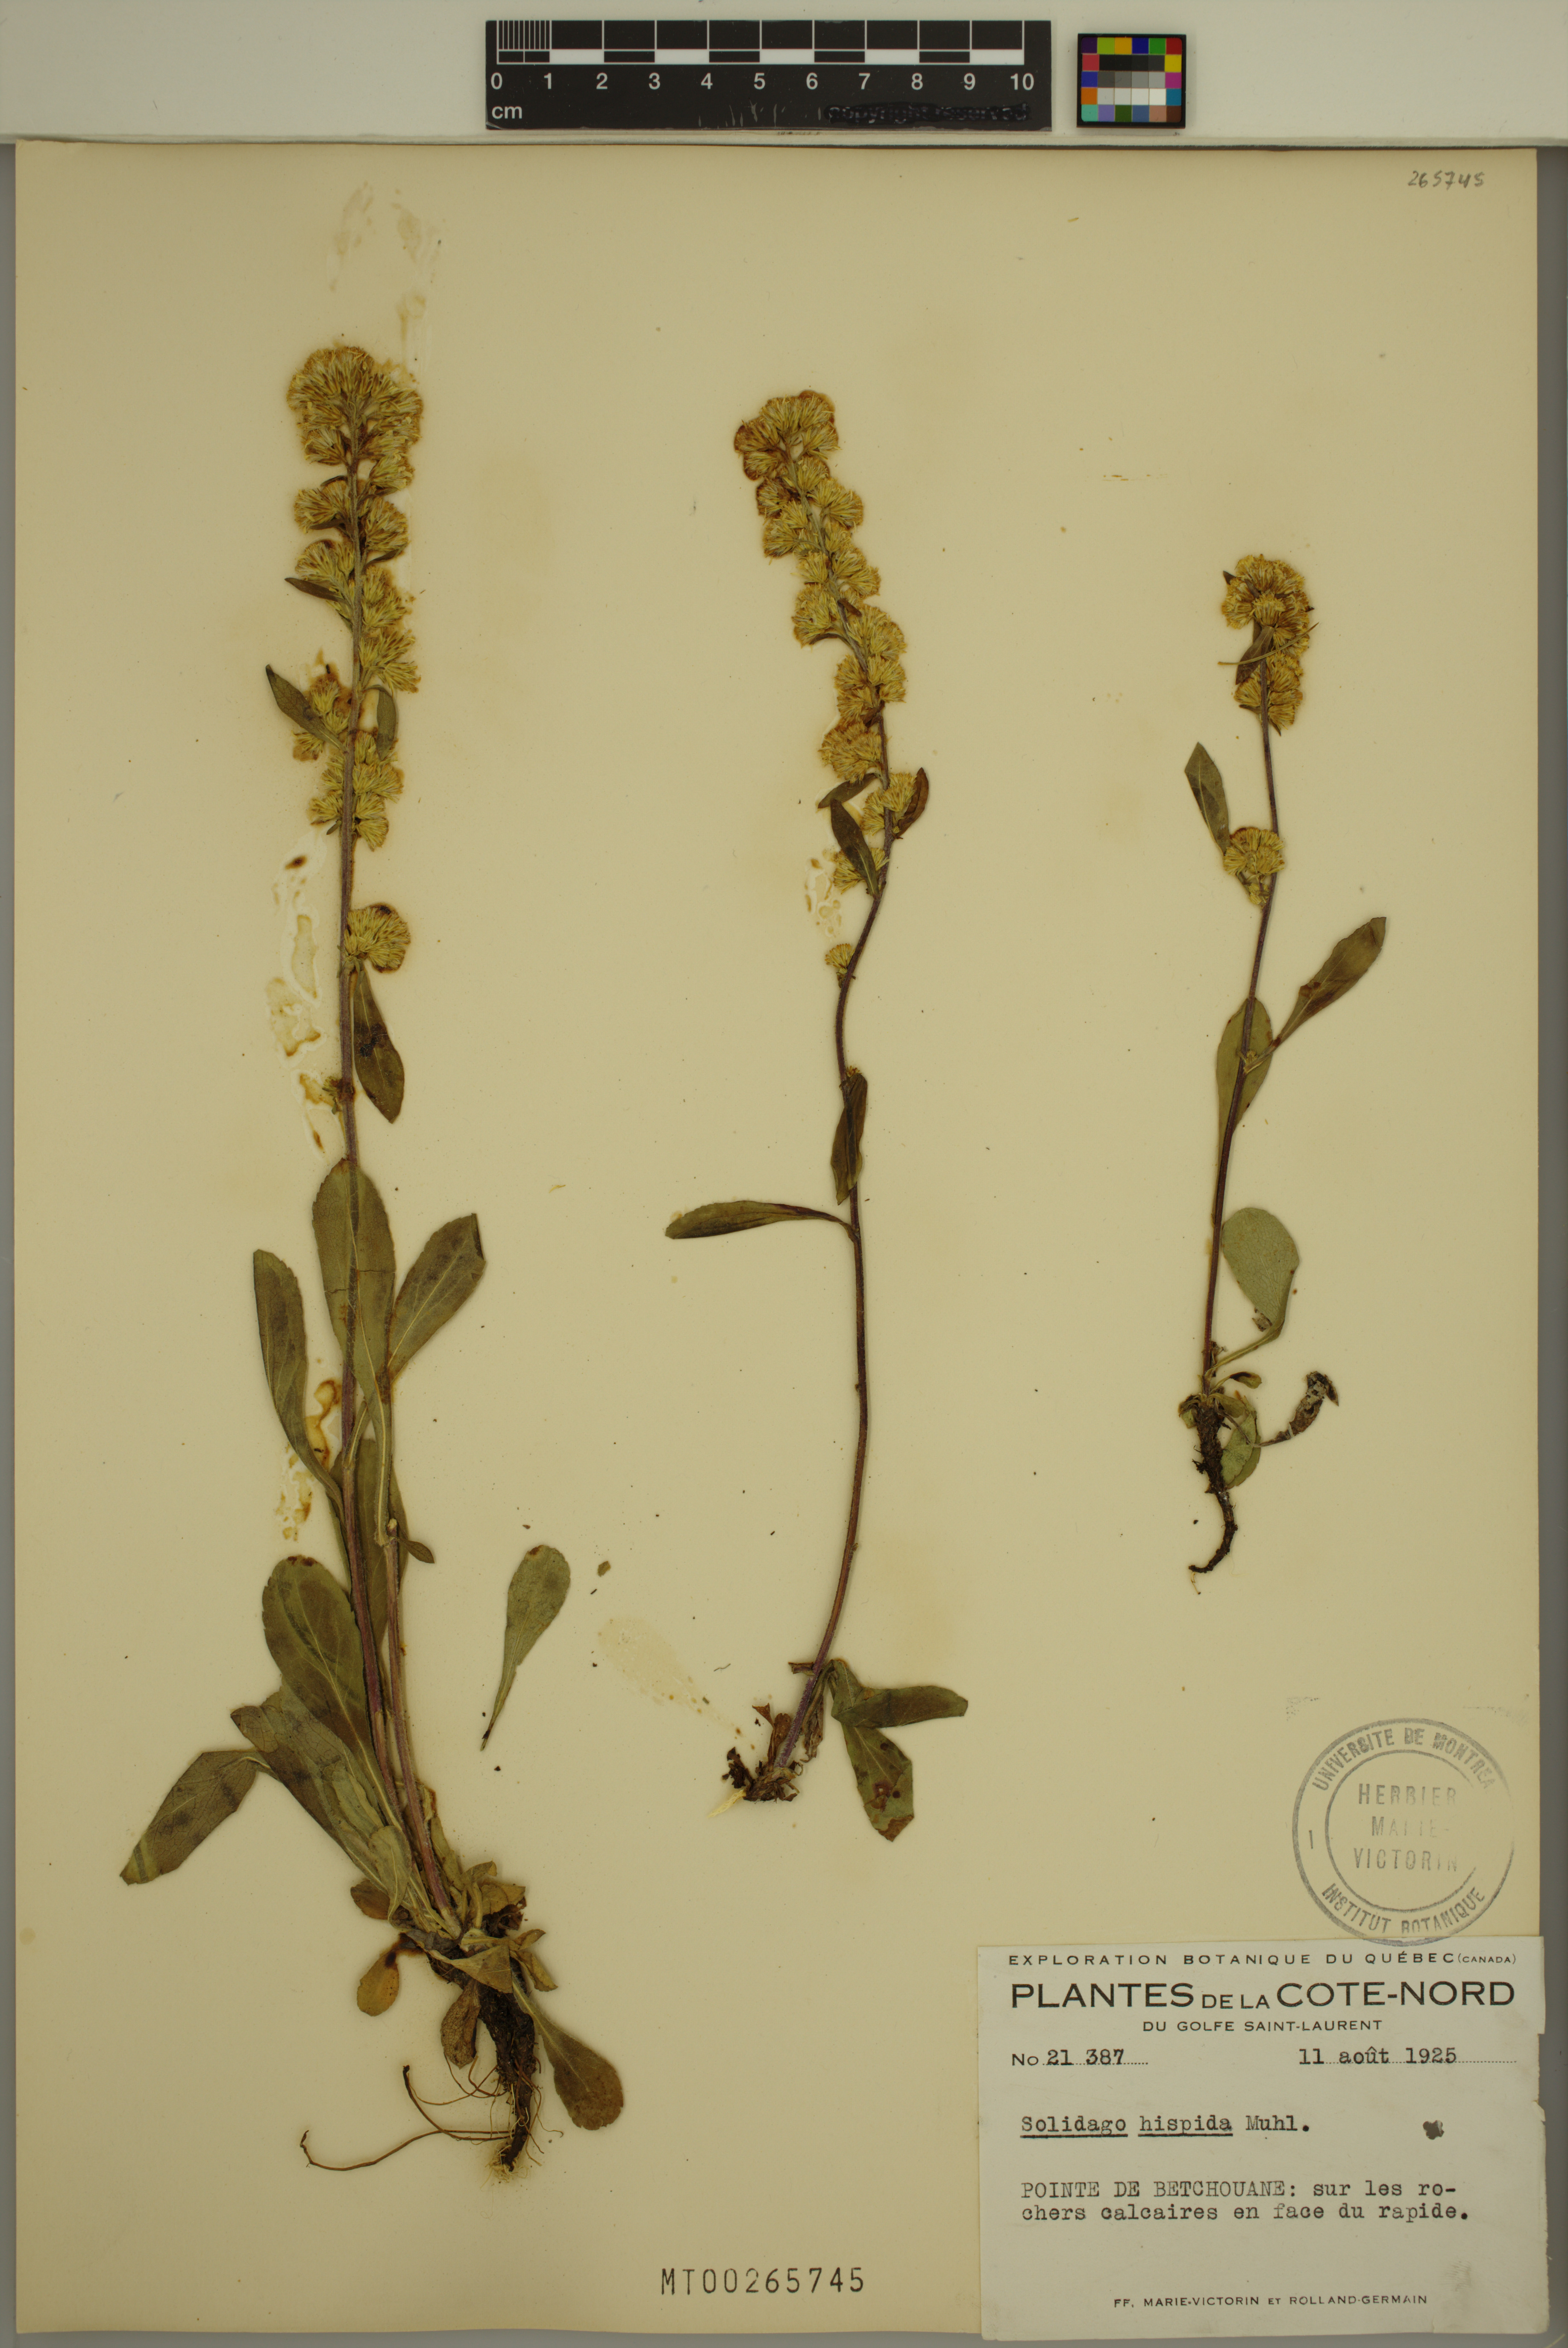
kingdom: Plantae
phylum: Tracheophyta
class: Magnoliopsida
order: Asterales
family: Asteraceae
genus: Solidago
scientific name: Solidago hispida
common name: Hairy goldenrod
